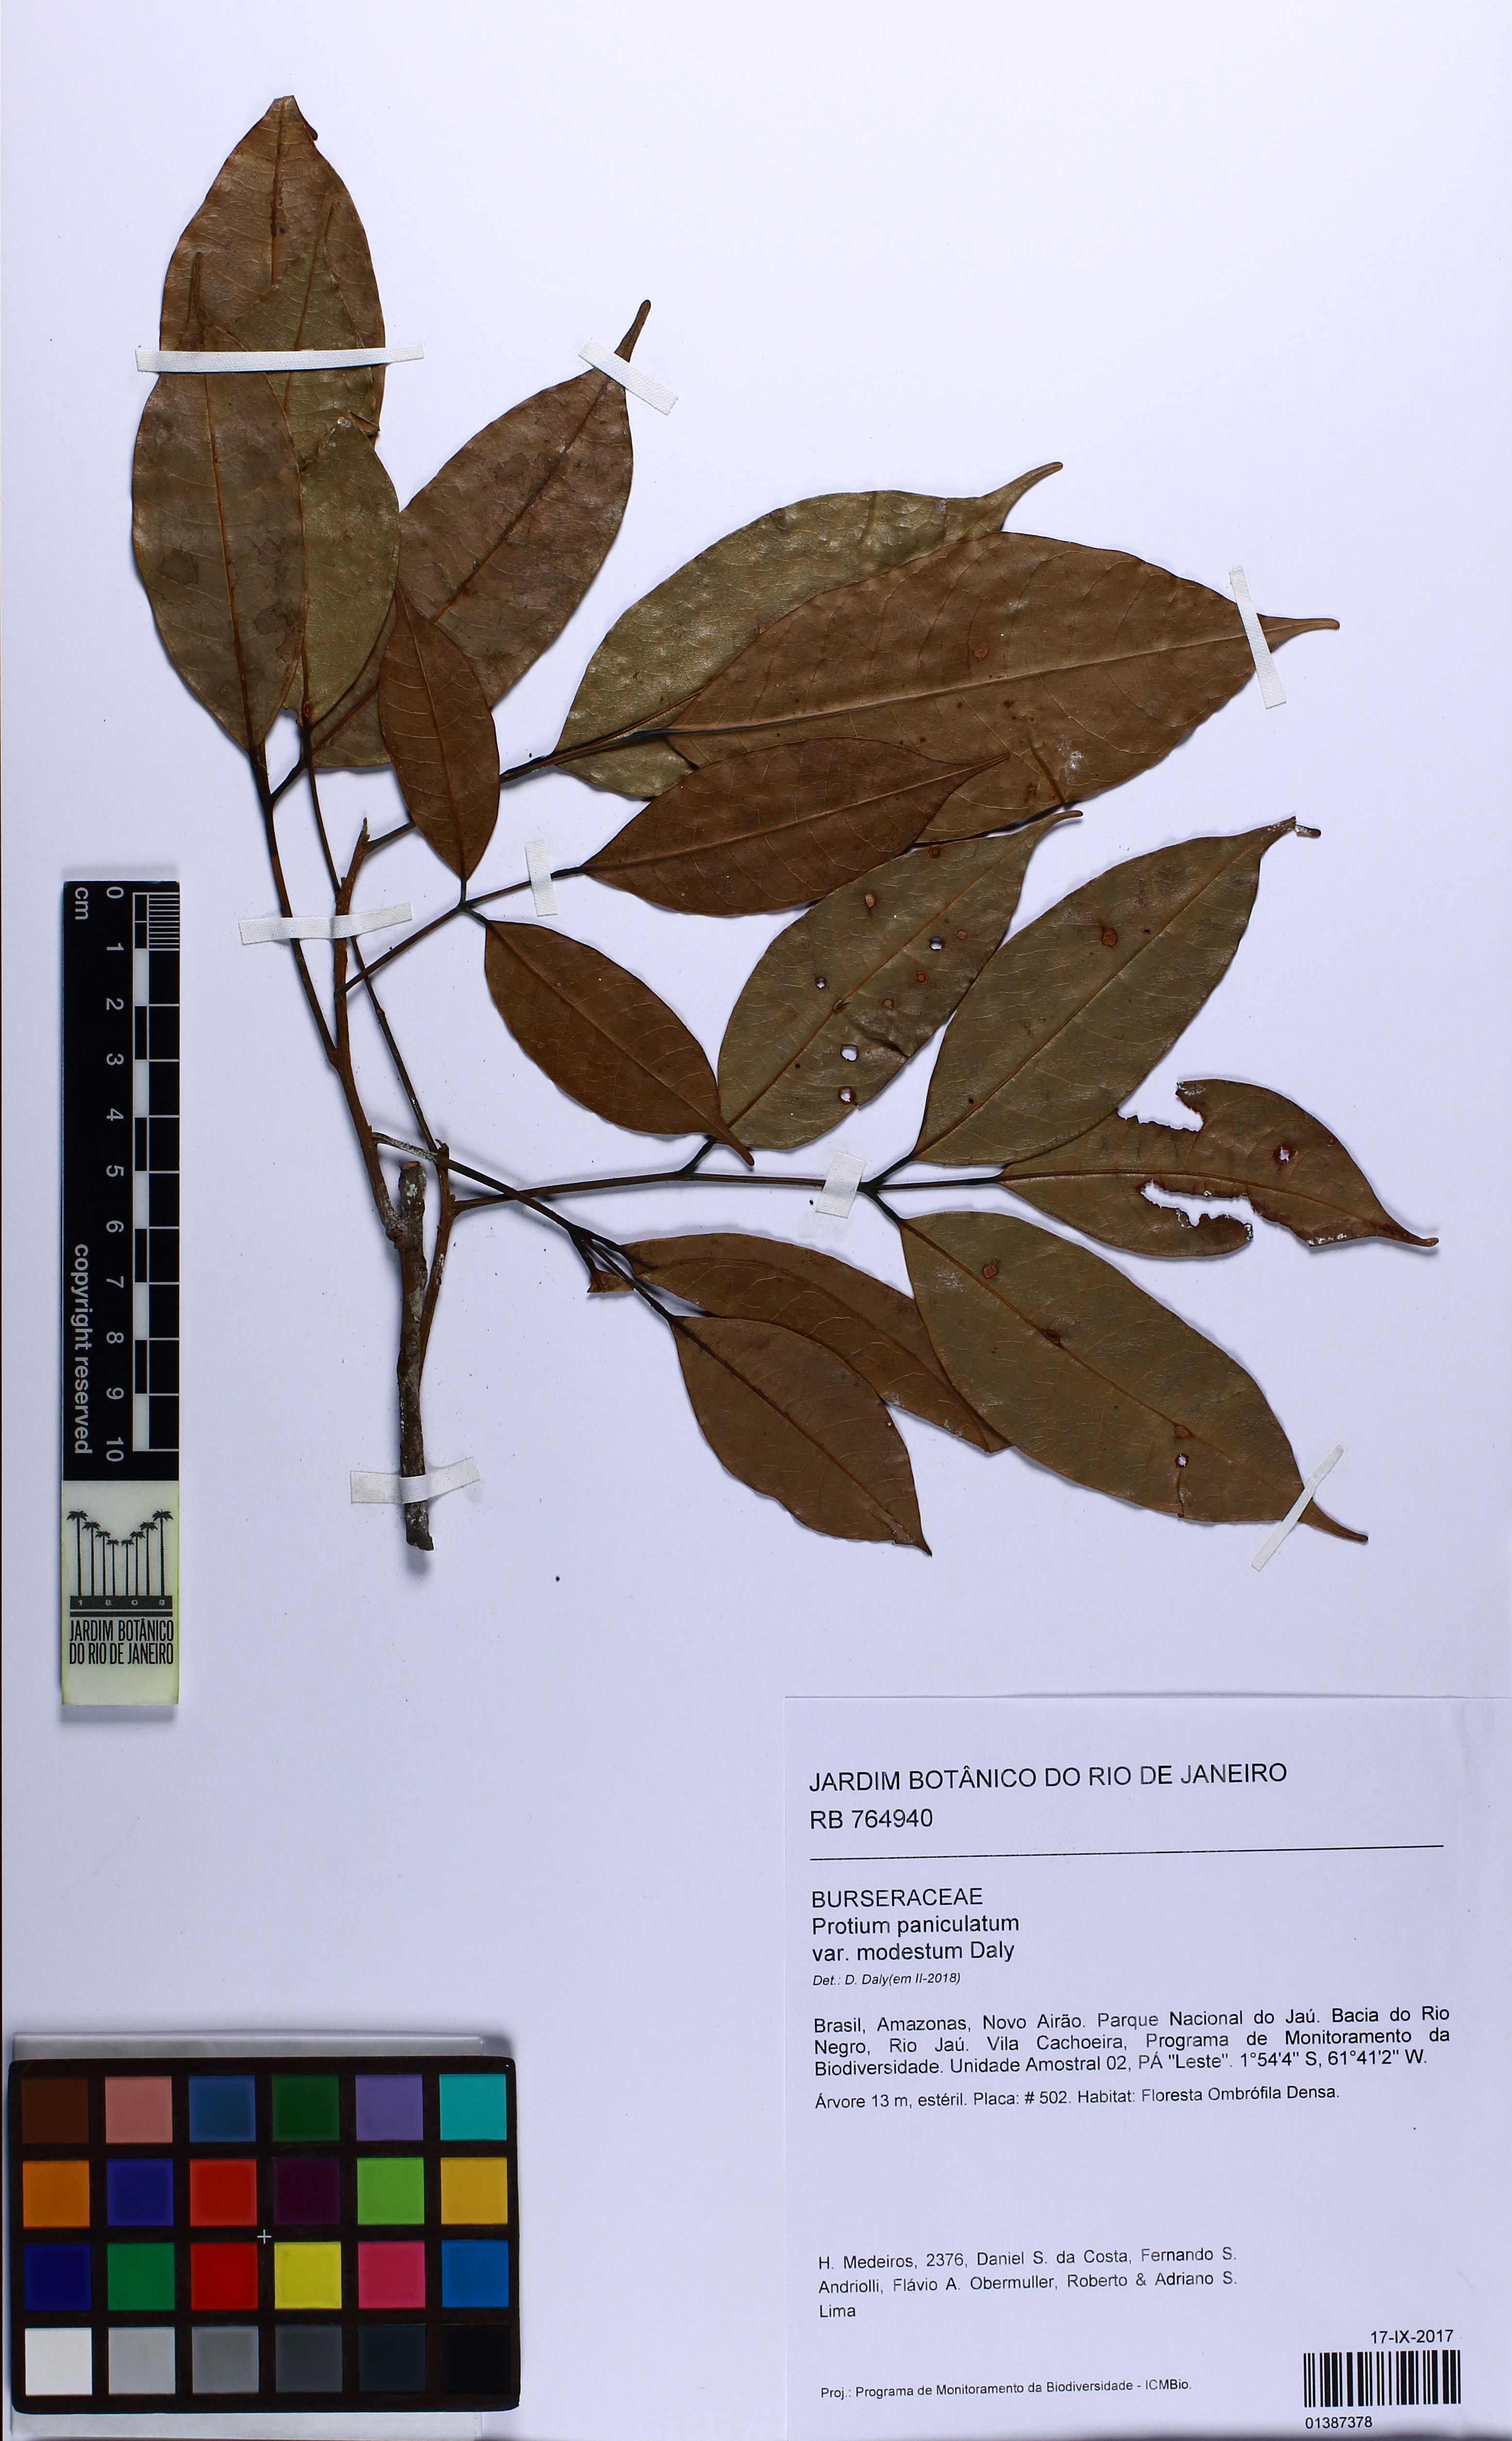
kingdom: Plantae
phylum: Tracheophyta
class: Magnoliopsida
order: Sapindales
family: Burseraceae
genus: Protium
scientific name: Protium paniculatum
